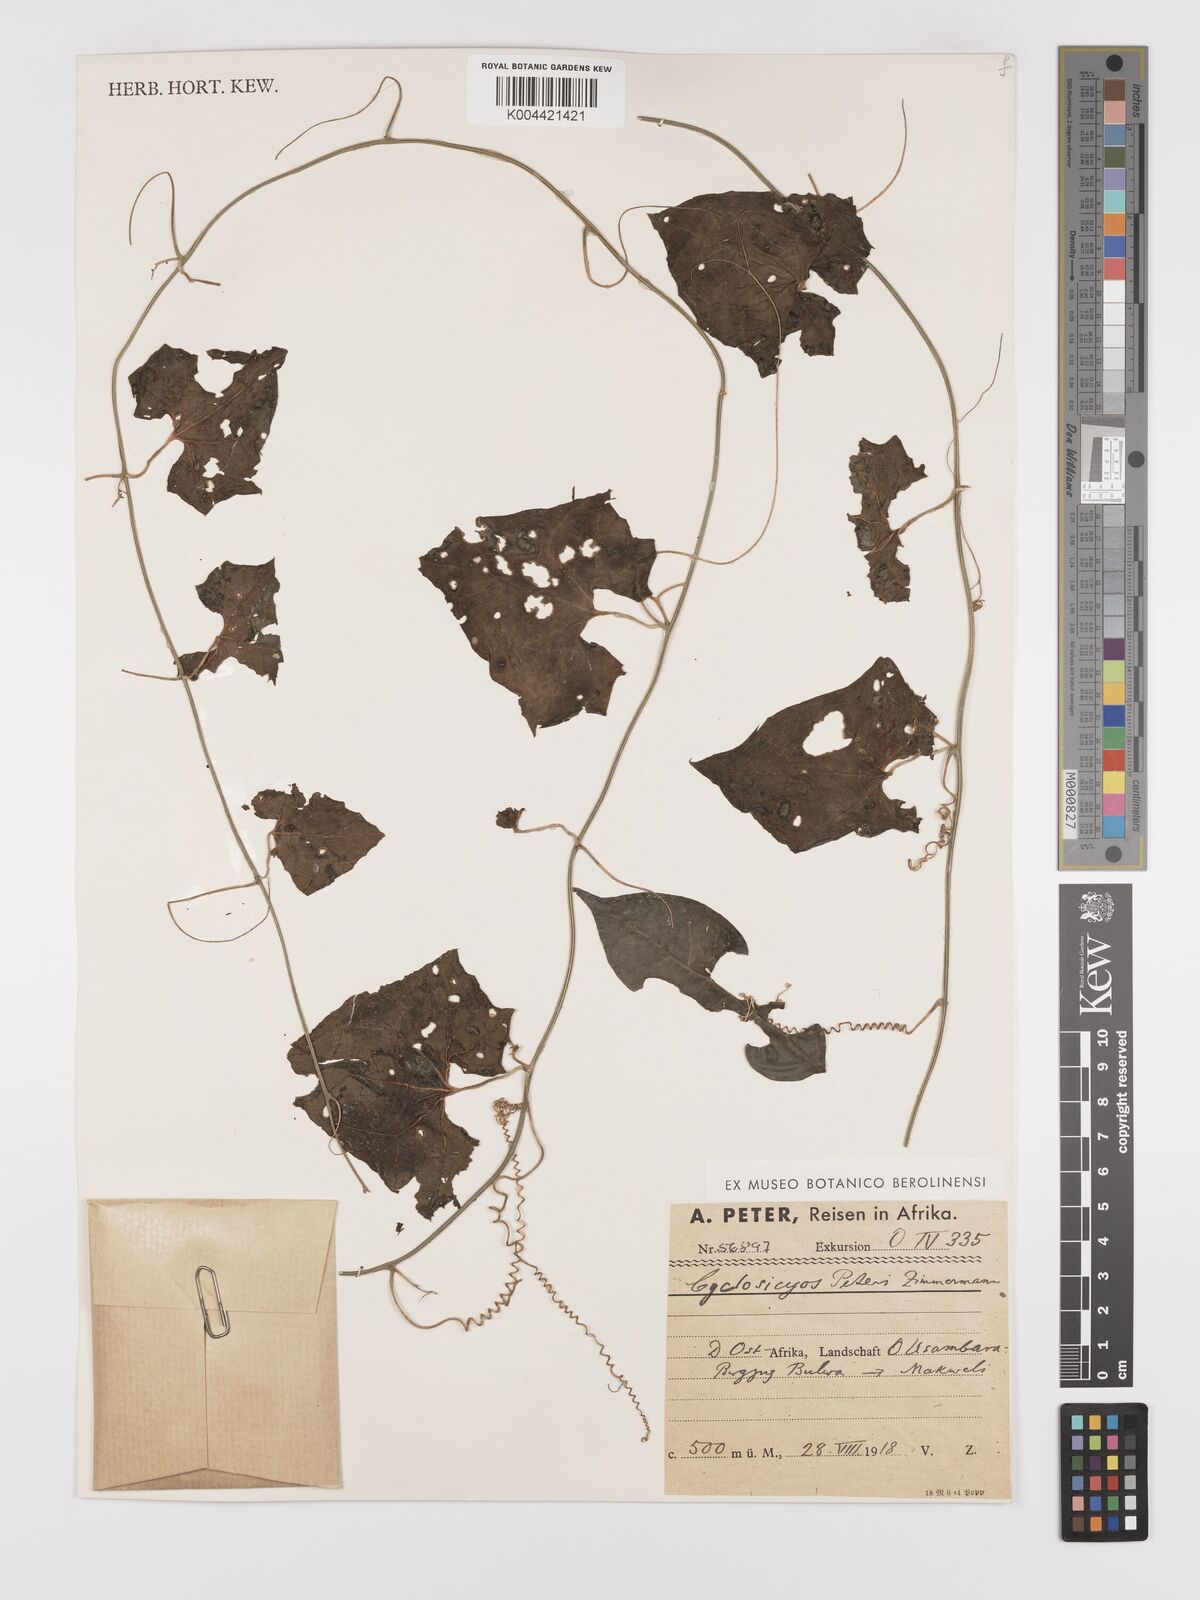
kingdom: Plantae
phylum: Tracheophyta
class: Magnoliopsida
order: Cucurbitales
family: Cucurbitaceae
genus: Cyclantheropsis
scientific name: Cyclantheropsis parviflora
